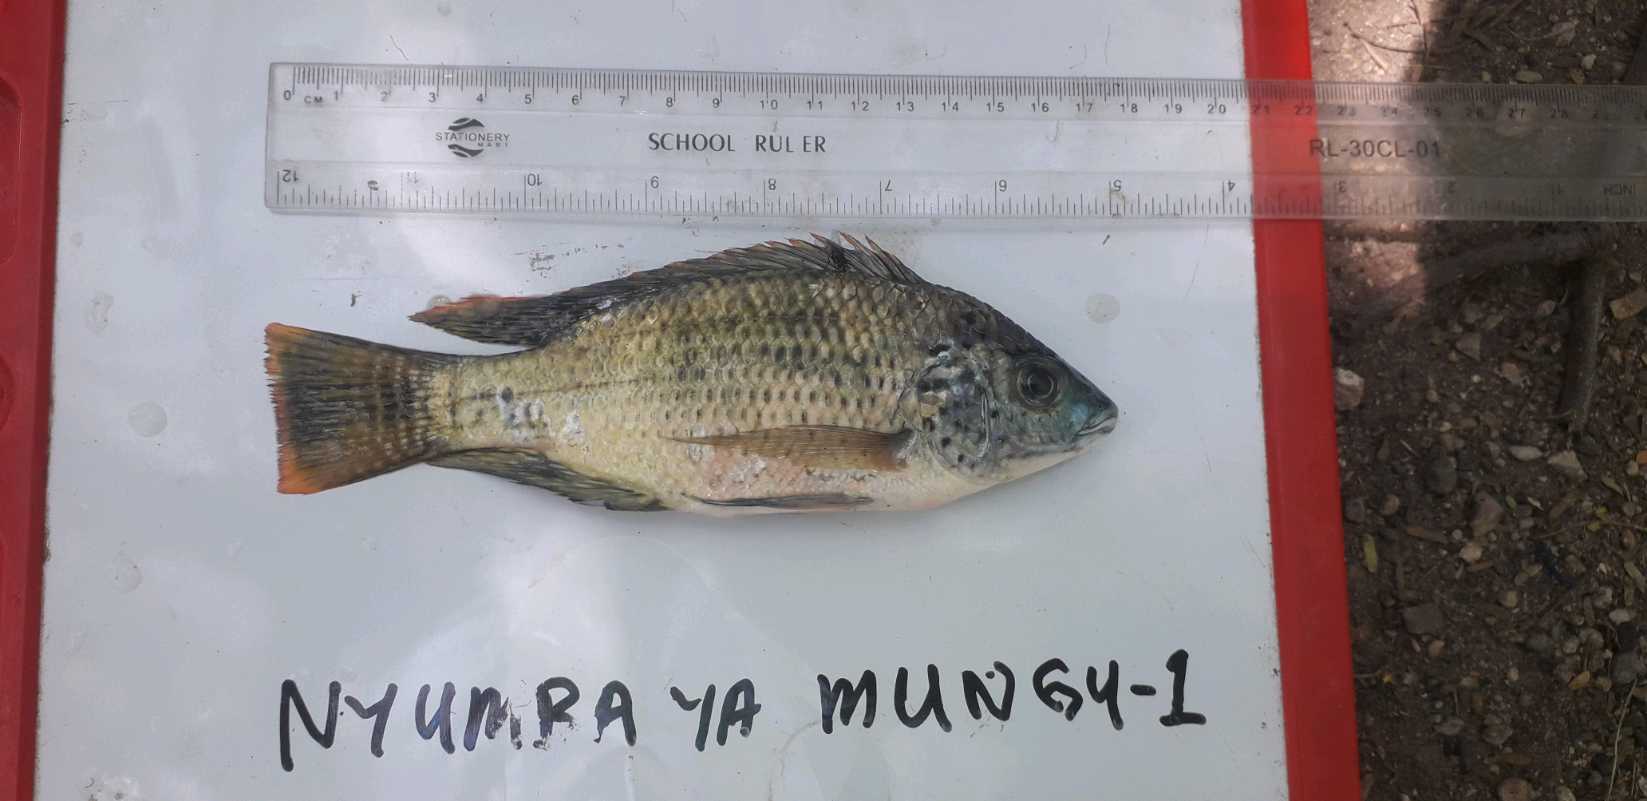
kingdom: Animalia
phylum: Chordata
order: Perciformes
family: Cichlidae
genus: Oreochromis
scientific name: Oreochromis niloticus
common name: Nile tilapia
